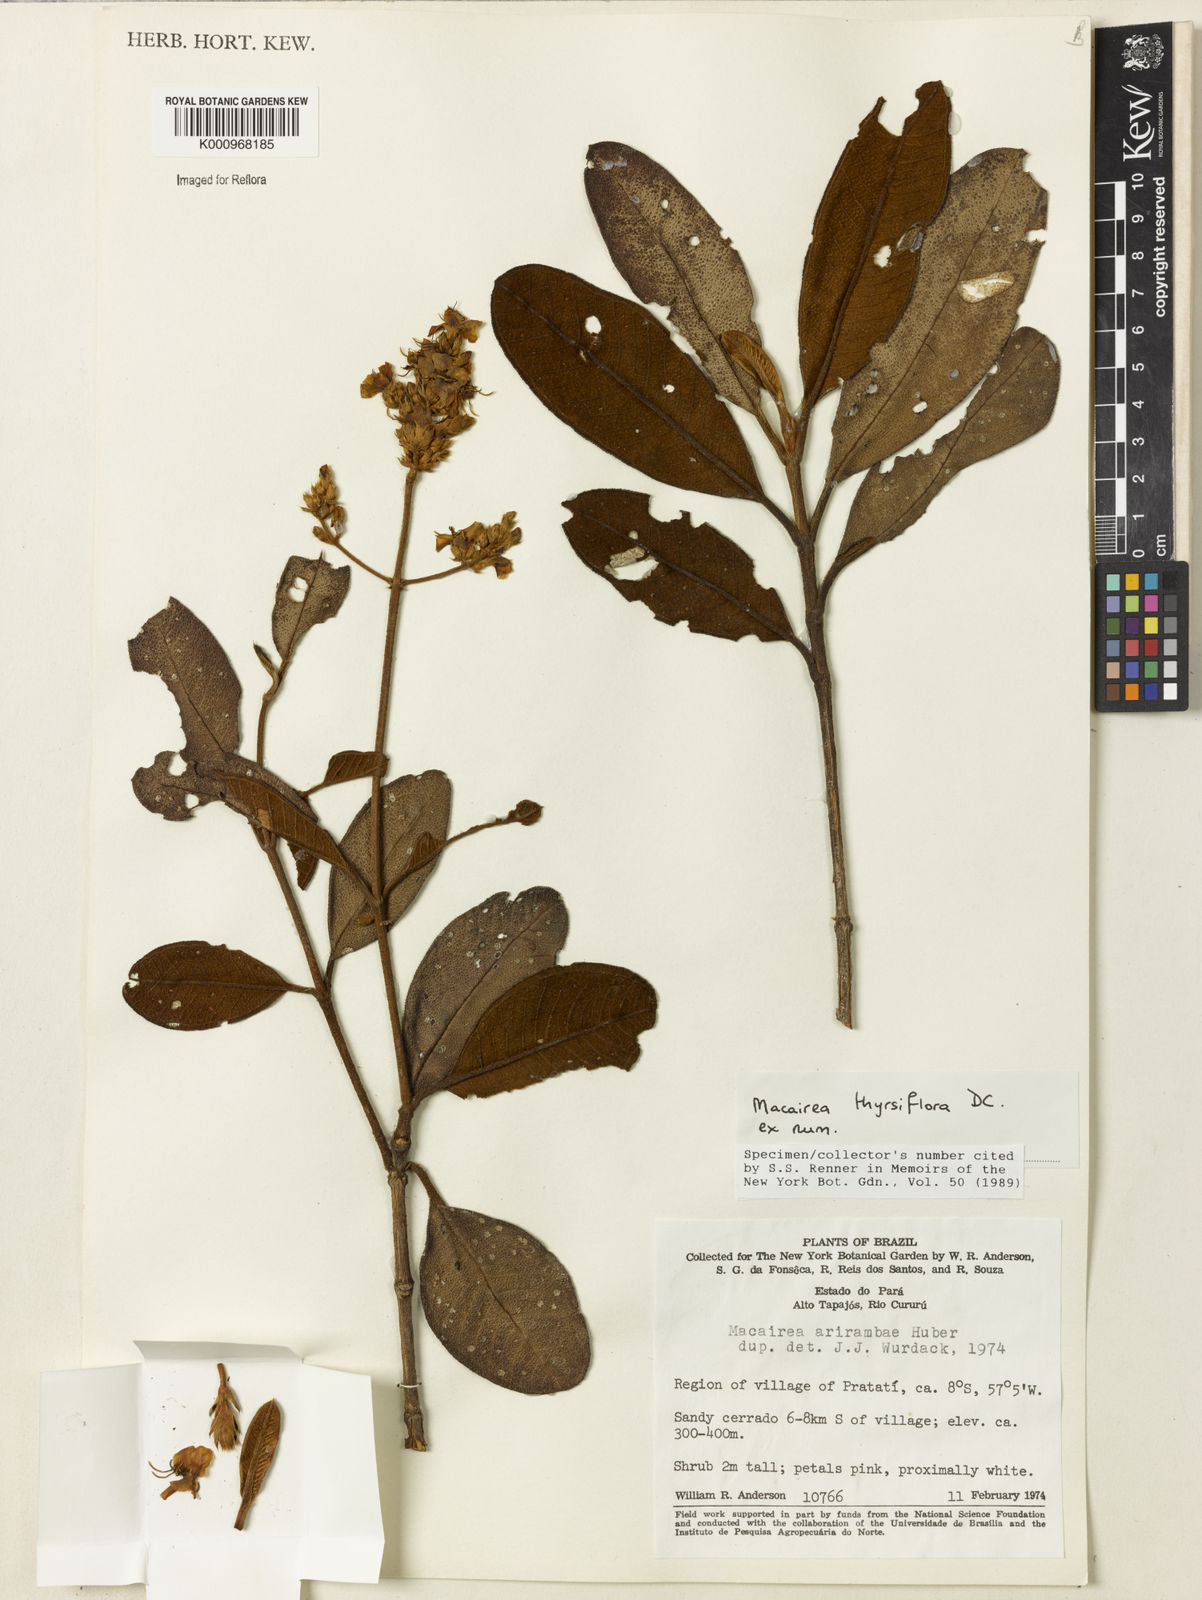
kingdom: Plantae
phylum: Tracheophyta
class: Magnoliopsida
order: Myrtales
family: Melastomataceae
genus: Macairea
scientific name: Macairea thyrsiflora
